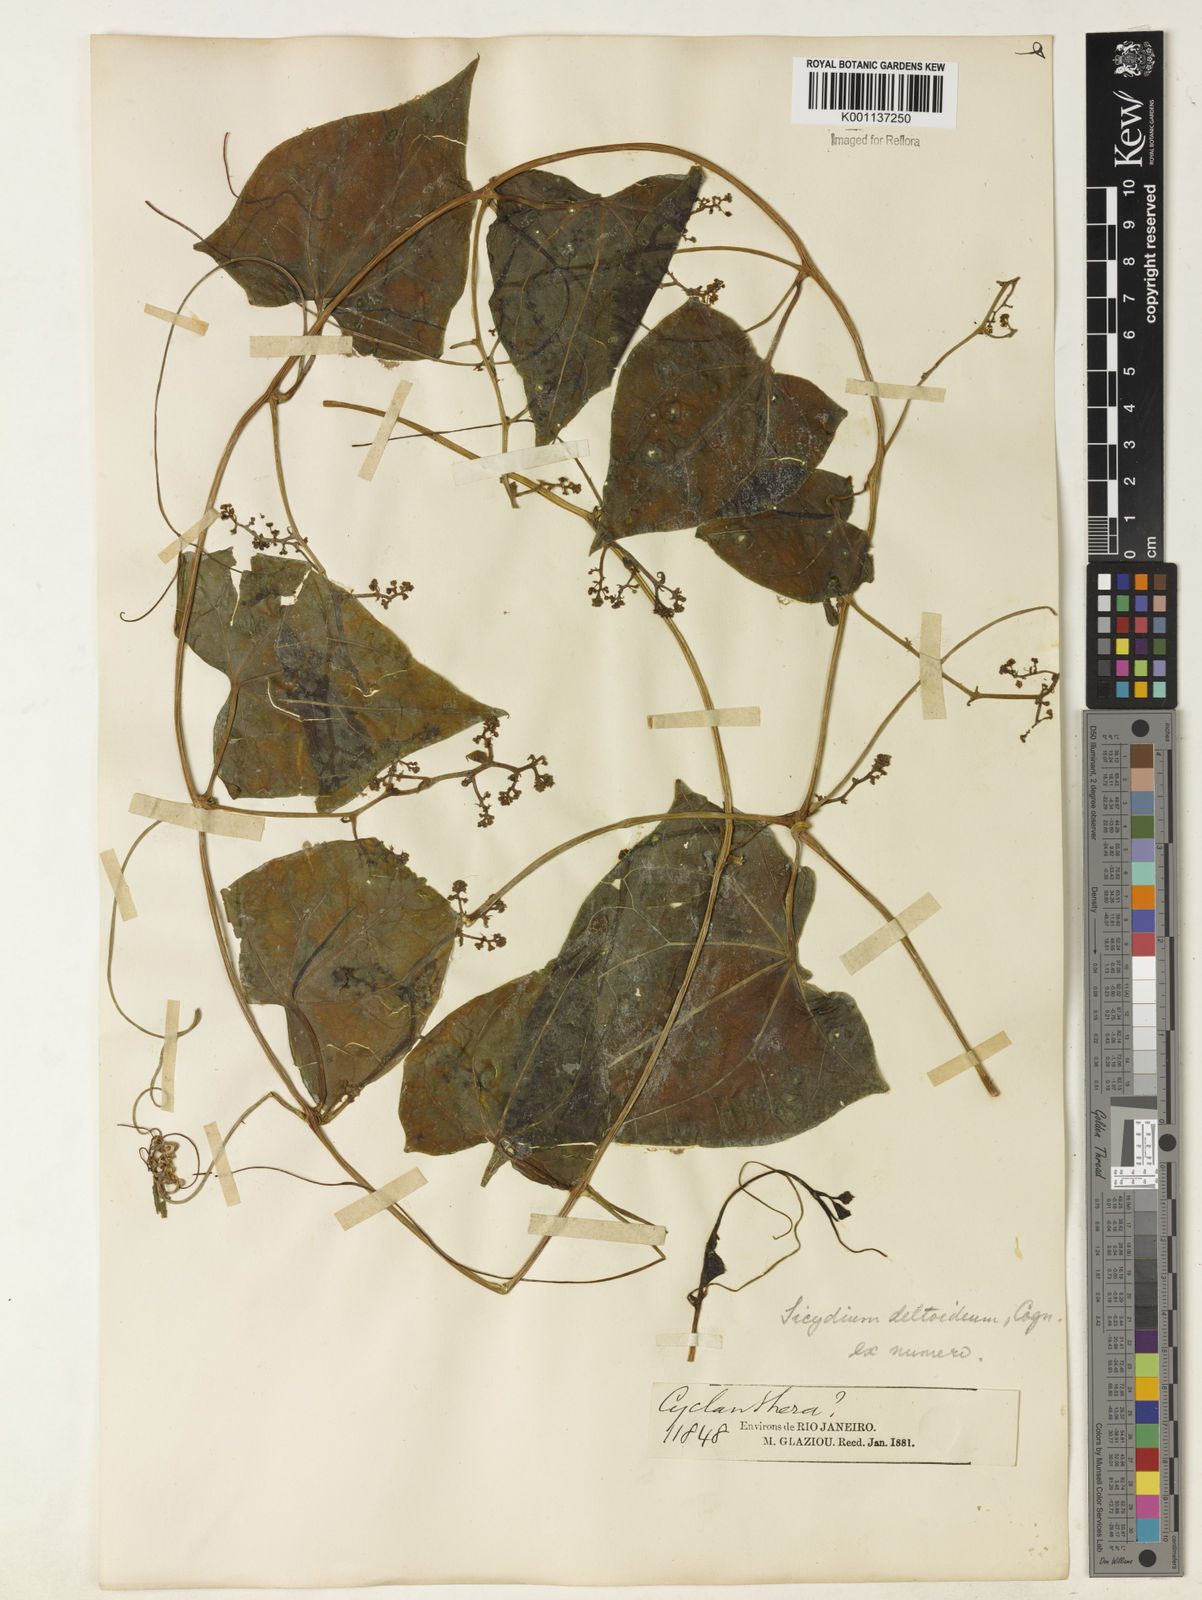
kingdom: Plantae
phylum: Tracheophyta
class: Magnoliopsida
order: Cucurbitales
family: Cucurbitaceae
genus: Pteropepon
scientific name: Pteropepon deltoideus
